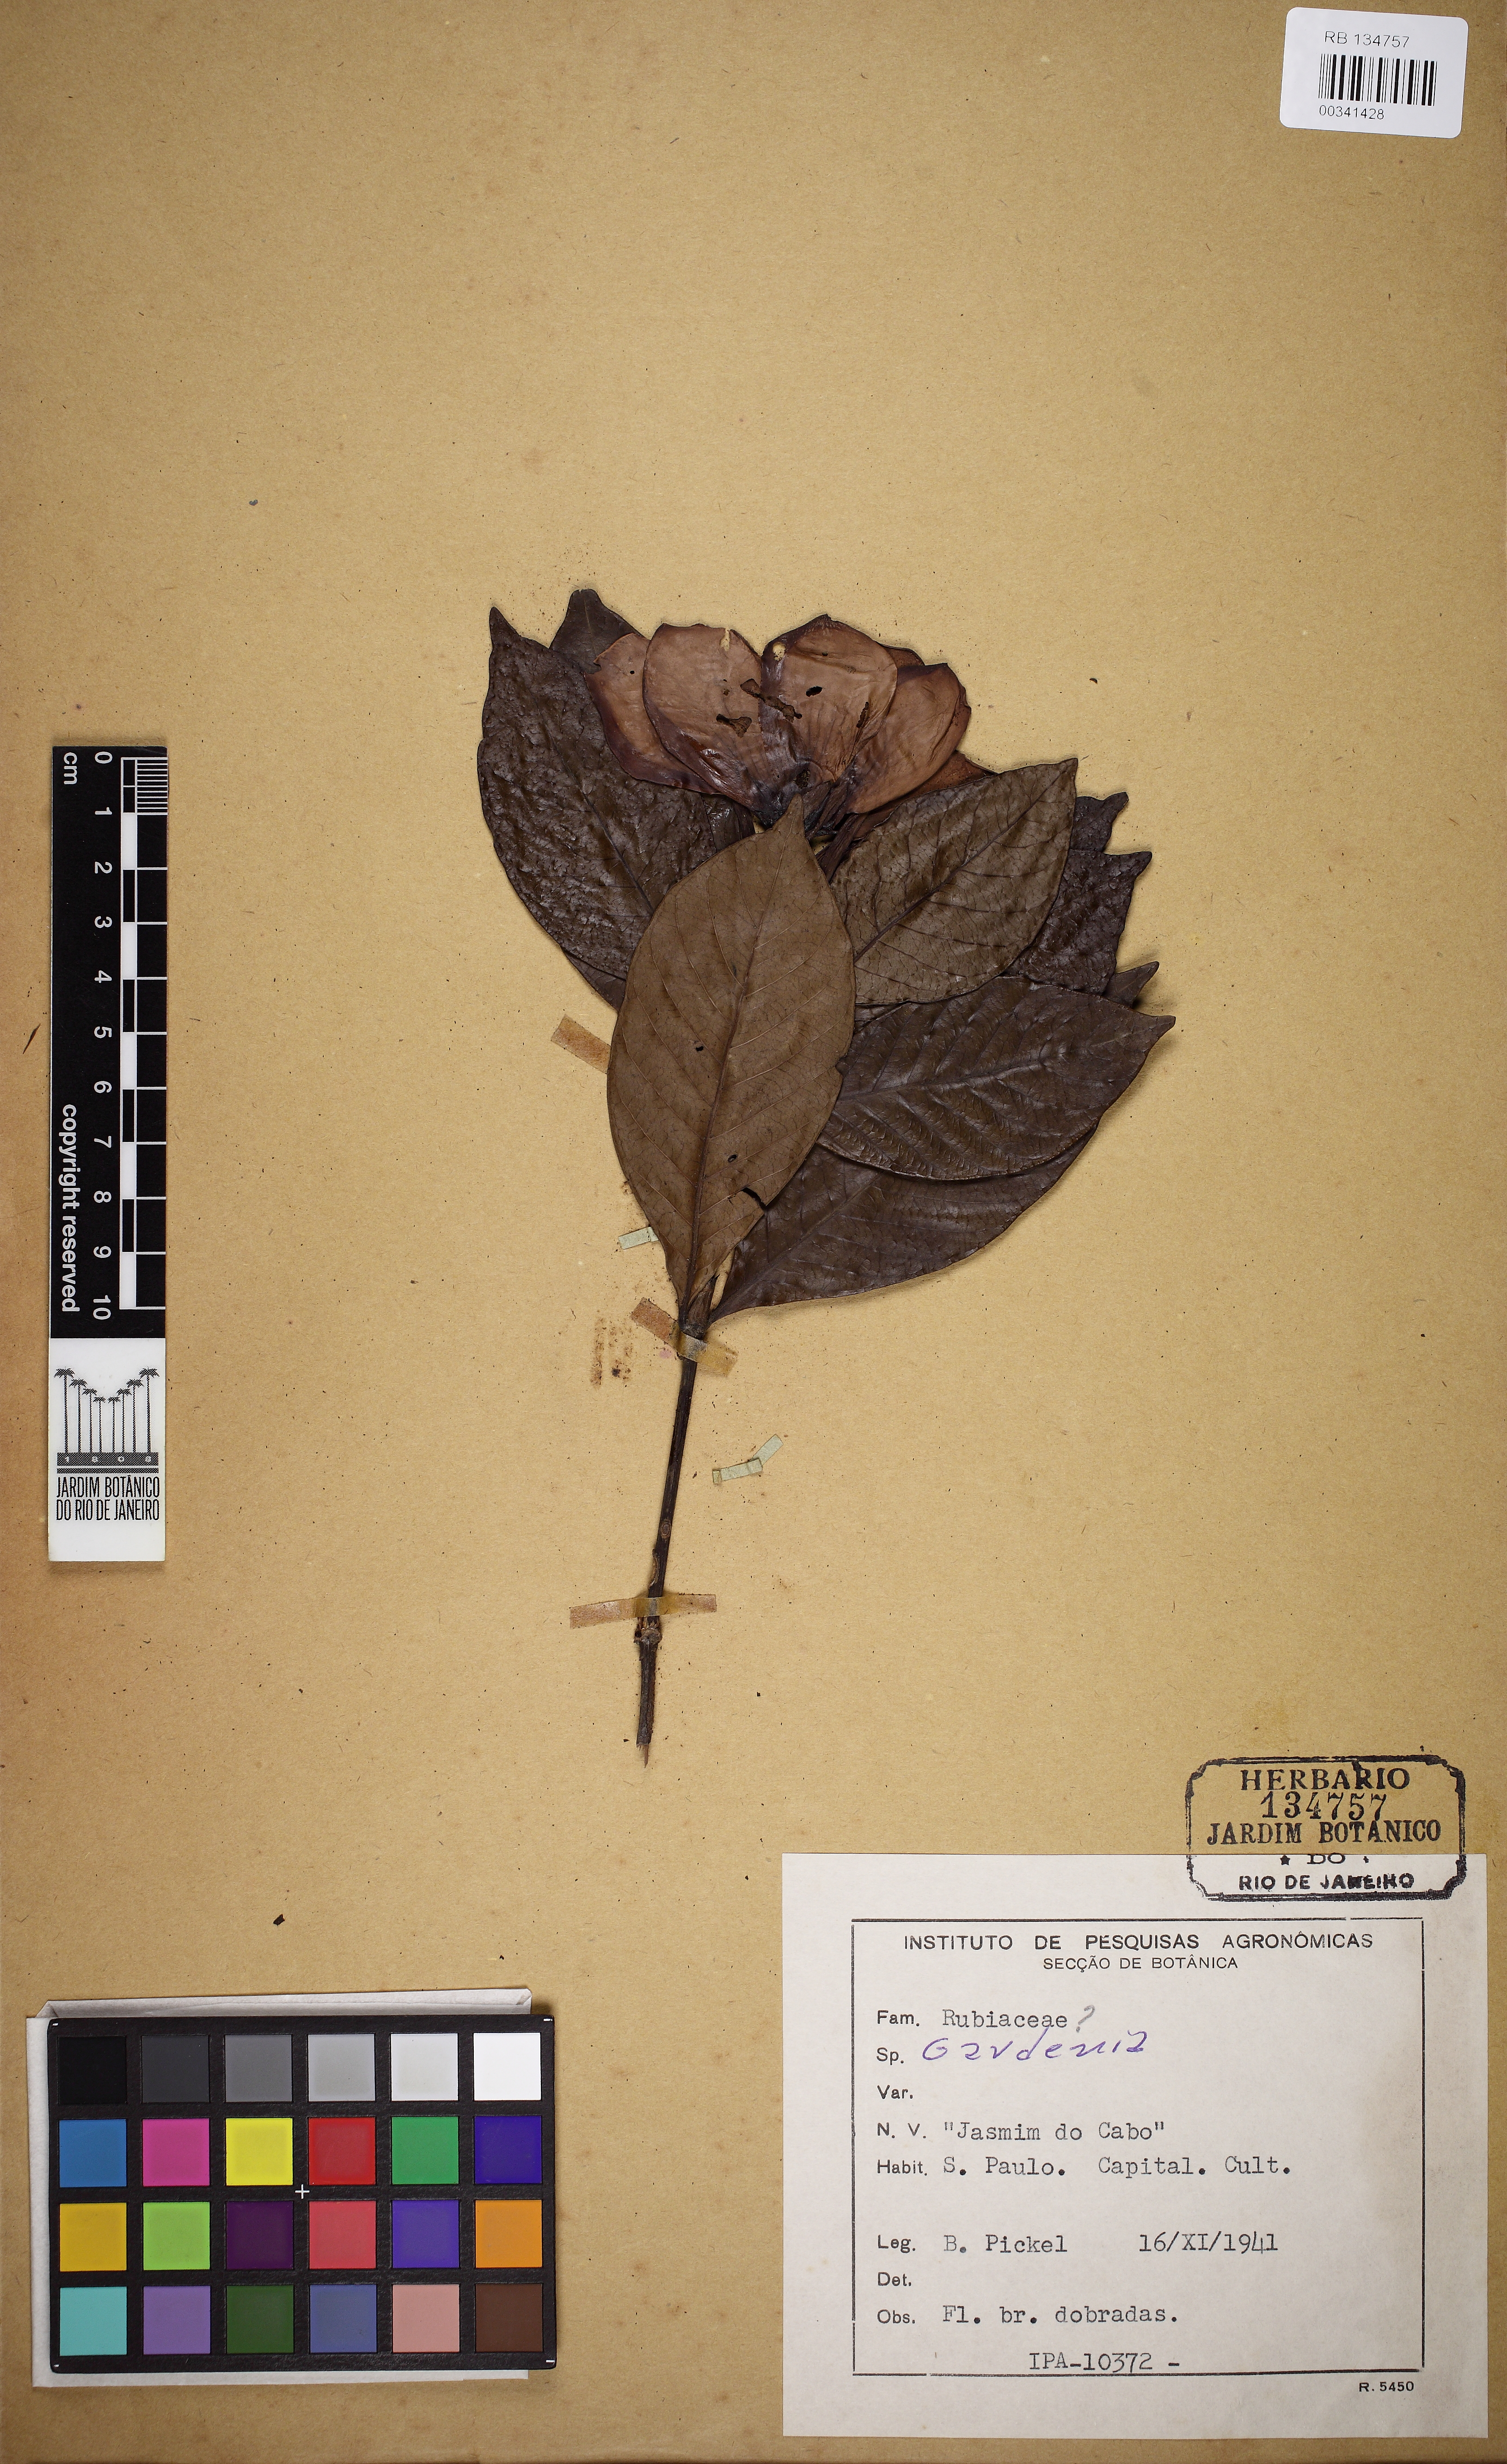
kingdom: Plantae
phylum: Tracheophyta
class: Magnoliopsida
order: Gentianales
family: Rubiaceae
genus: Gardenia
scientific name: Gardenia
